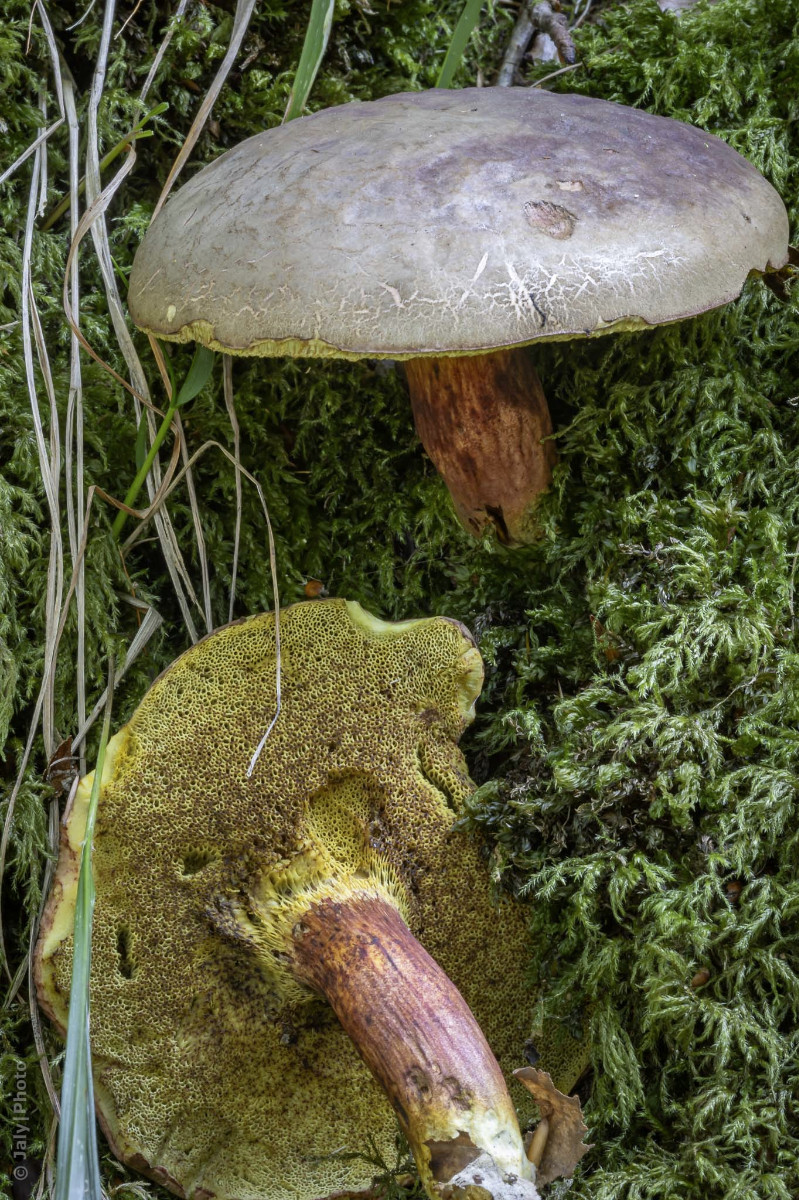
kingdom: Fungi
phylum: Basidiomycota
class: Agaricomycetes
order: Boletales
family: Boletaceae
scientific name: Boletaceae
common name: rørhatfamilien
